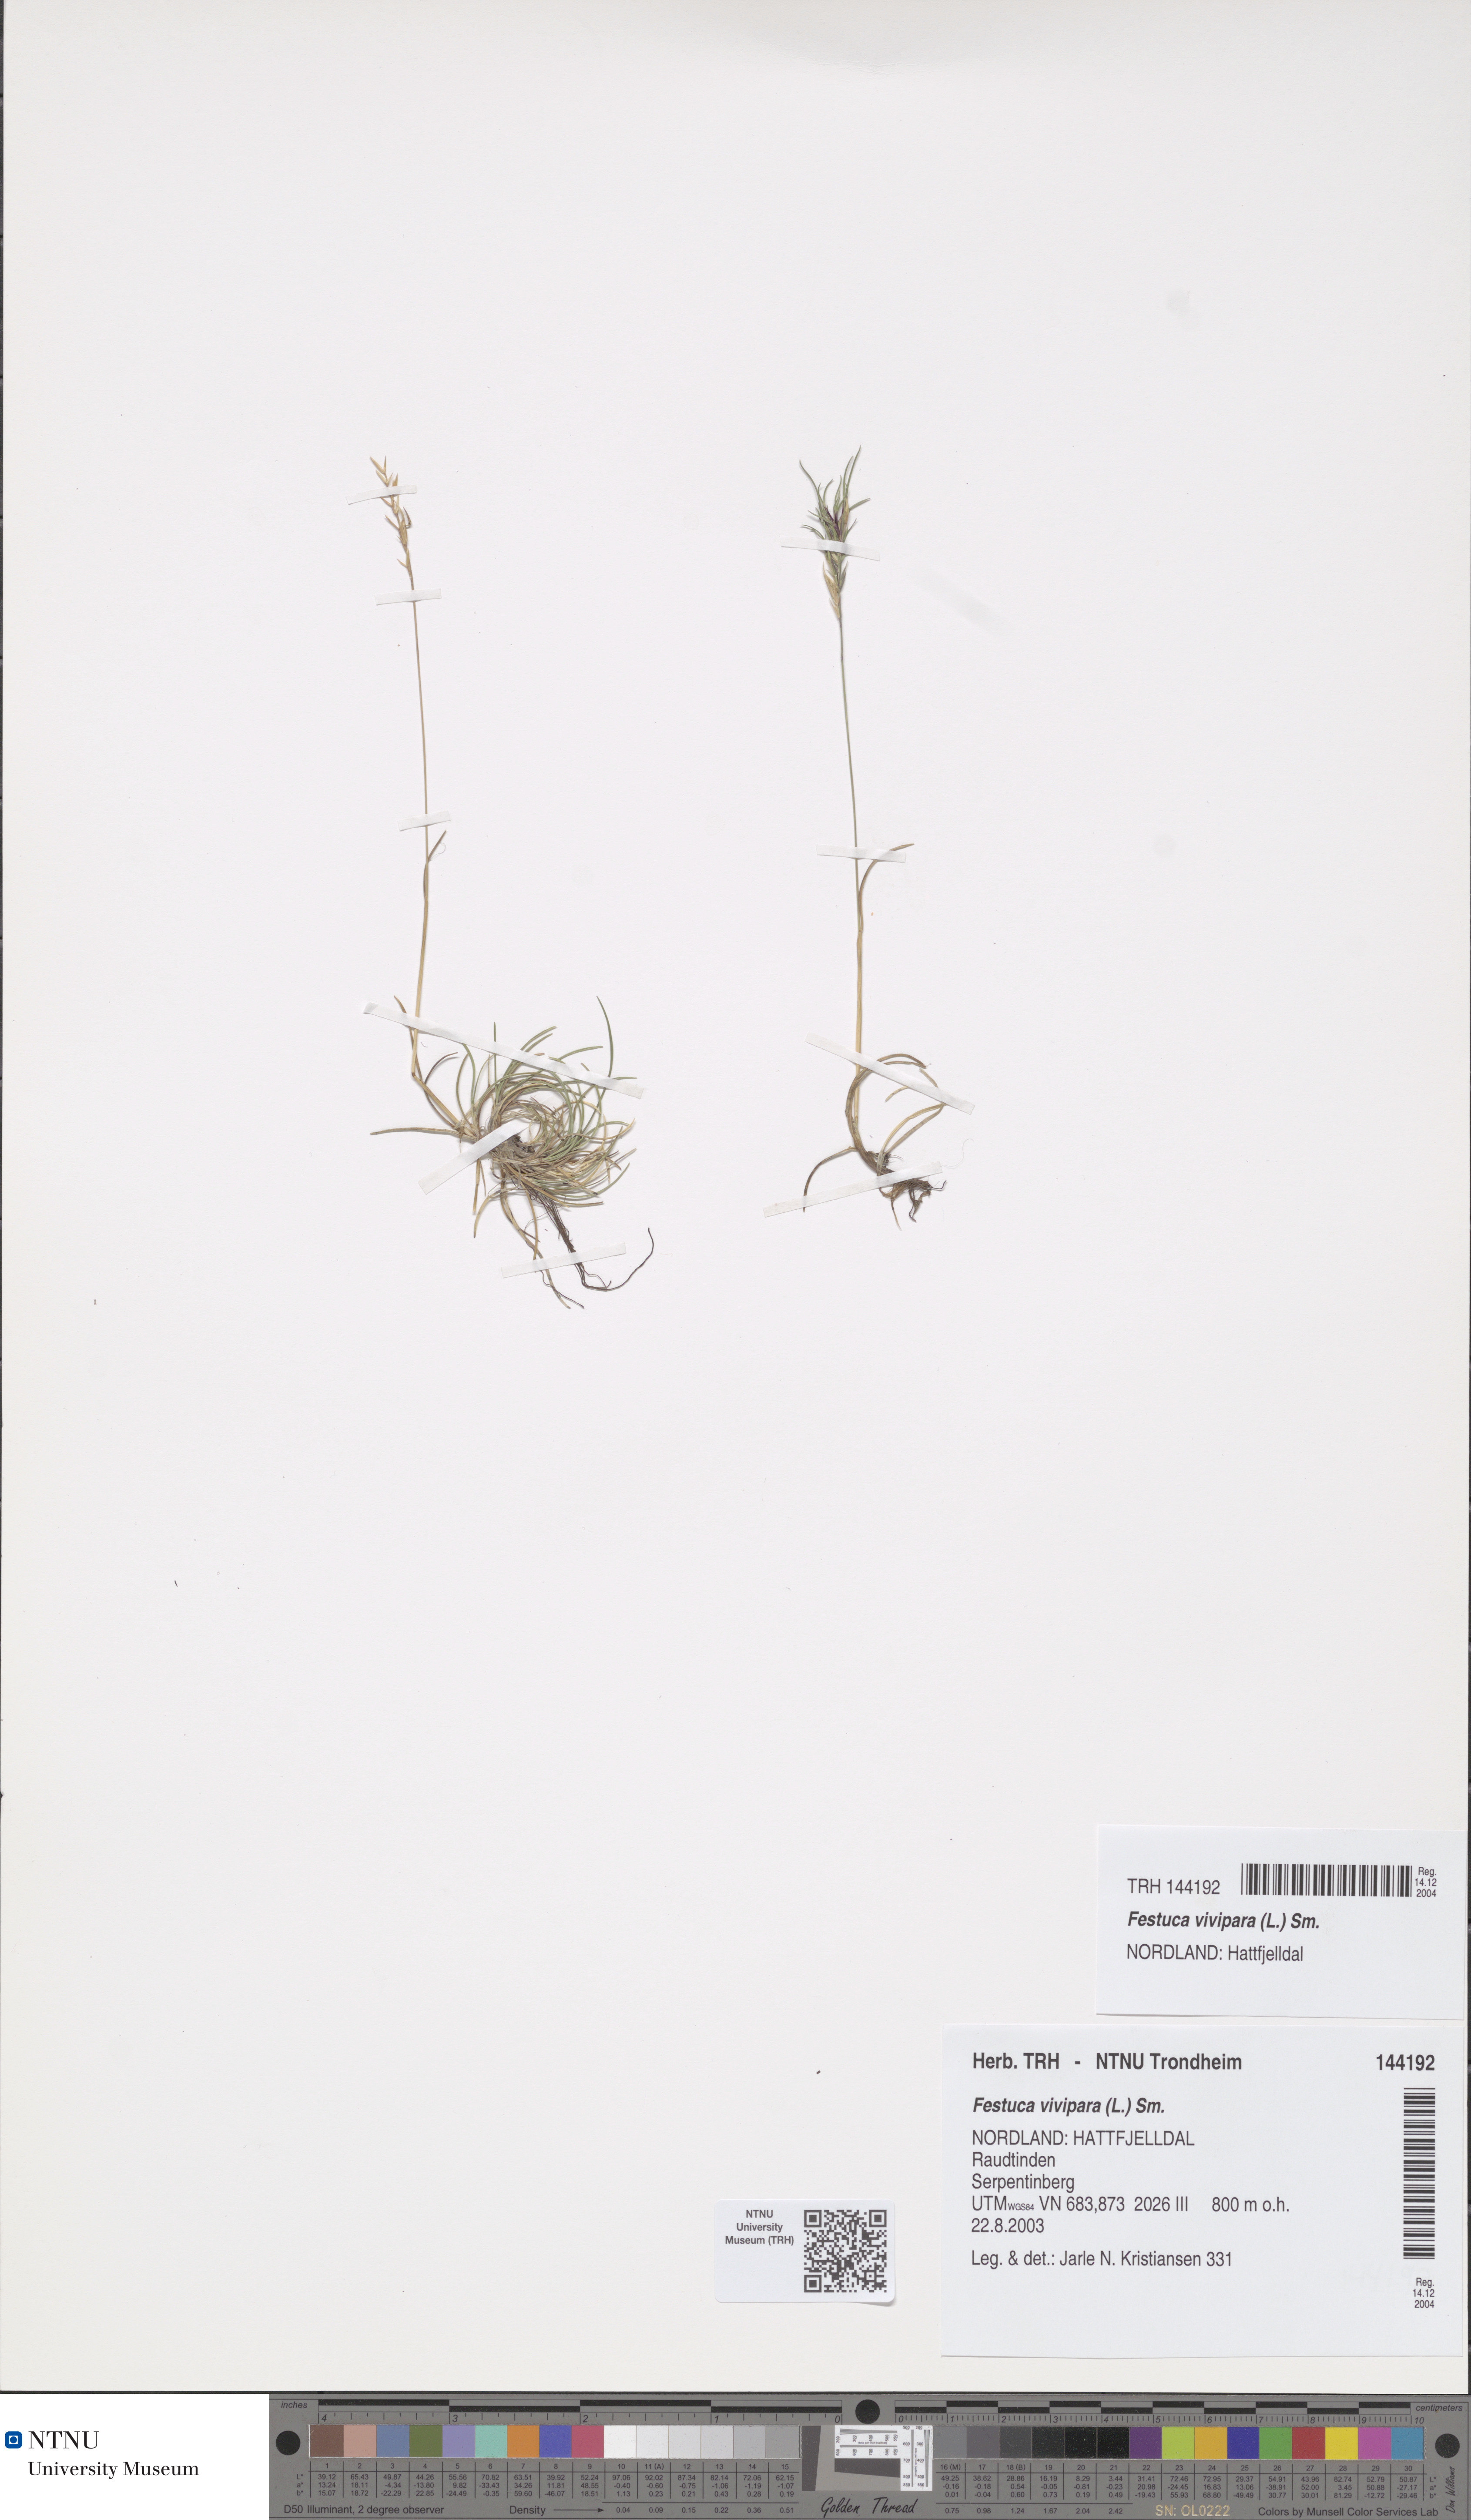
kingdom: Plantae
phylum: Tracheophyta
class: Liliopsida
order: Poales
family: Poaceae
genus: Festuca
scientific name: Festuca vivipara
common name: Viviparous sheep's-fescue
